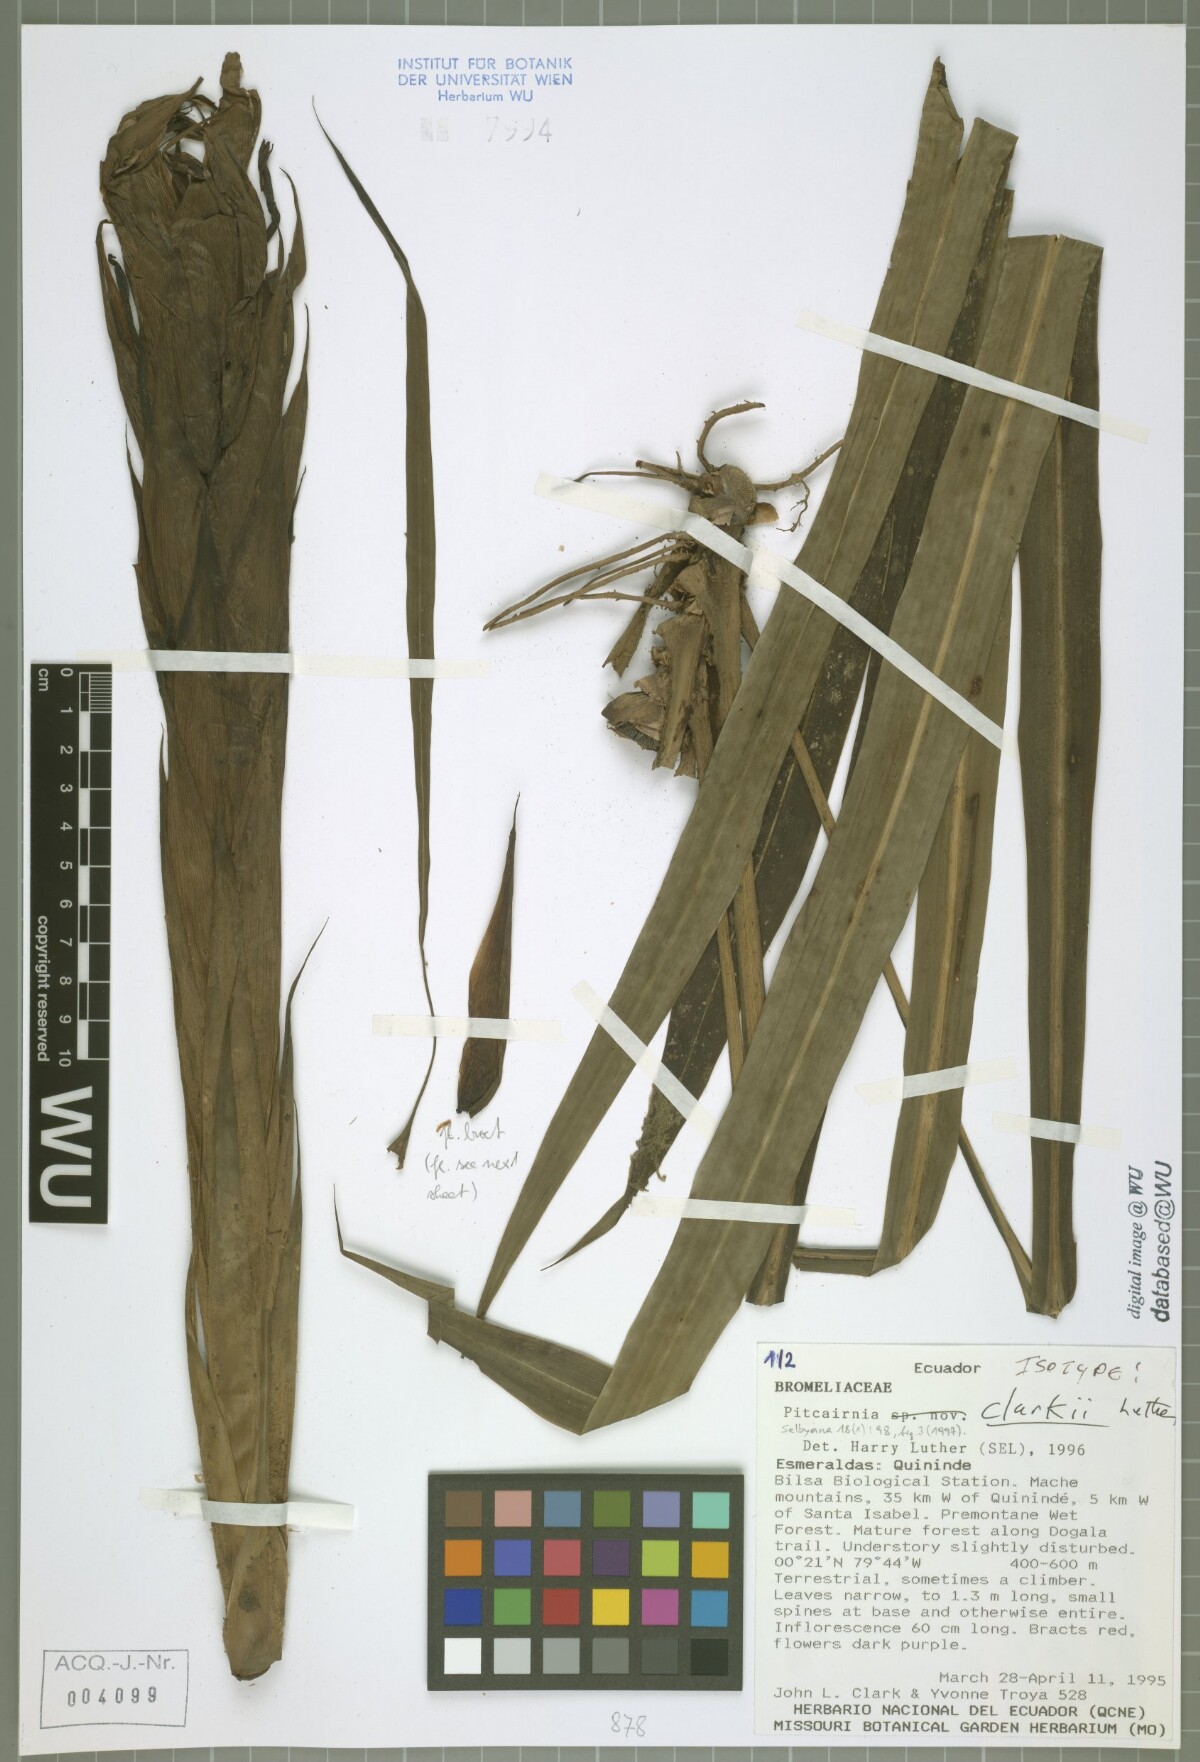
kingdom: Plantae
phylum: Tracheophyta
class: Liliopsida
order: Poales
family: Bromeliaceae
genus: Pitcairnia
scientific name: Pitcairnia clarkii
